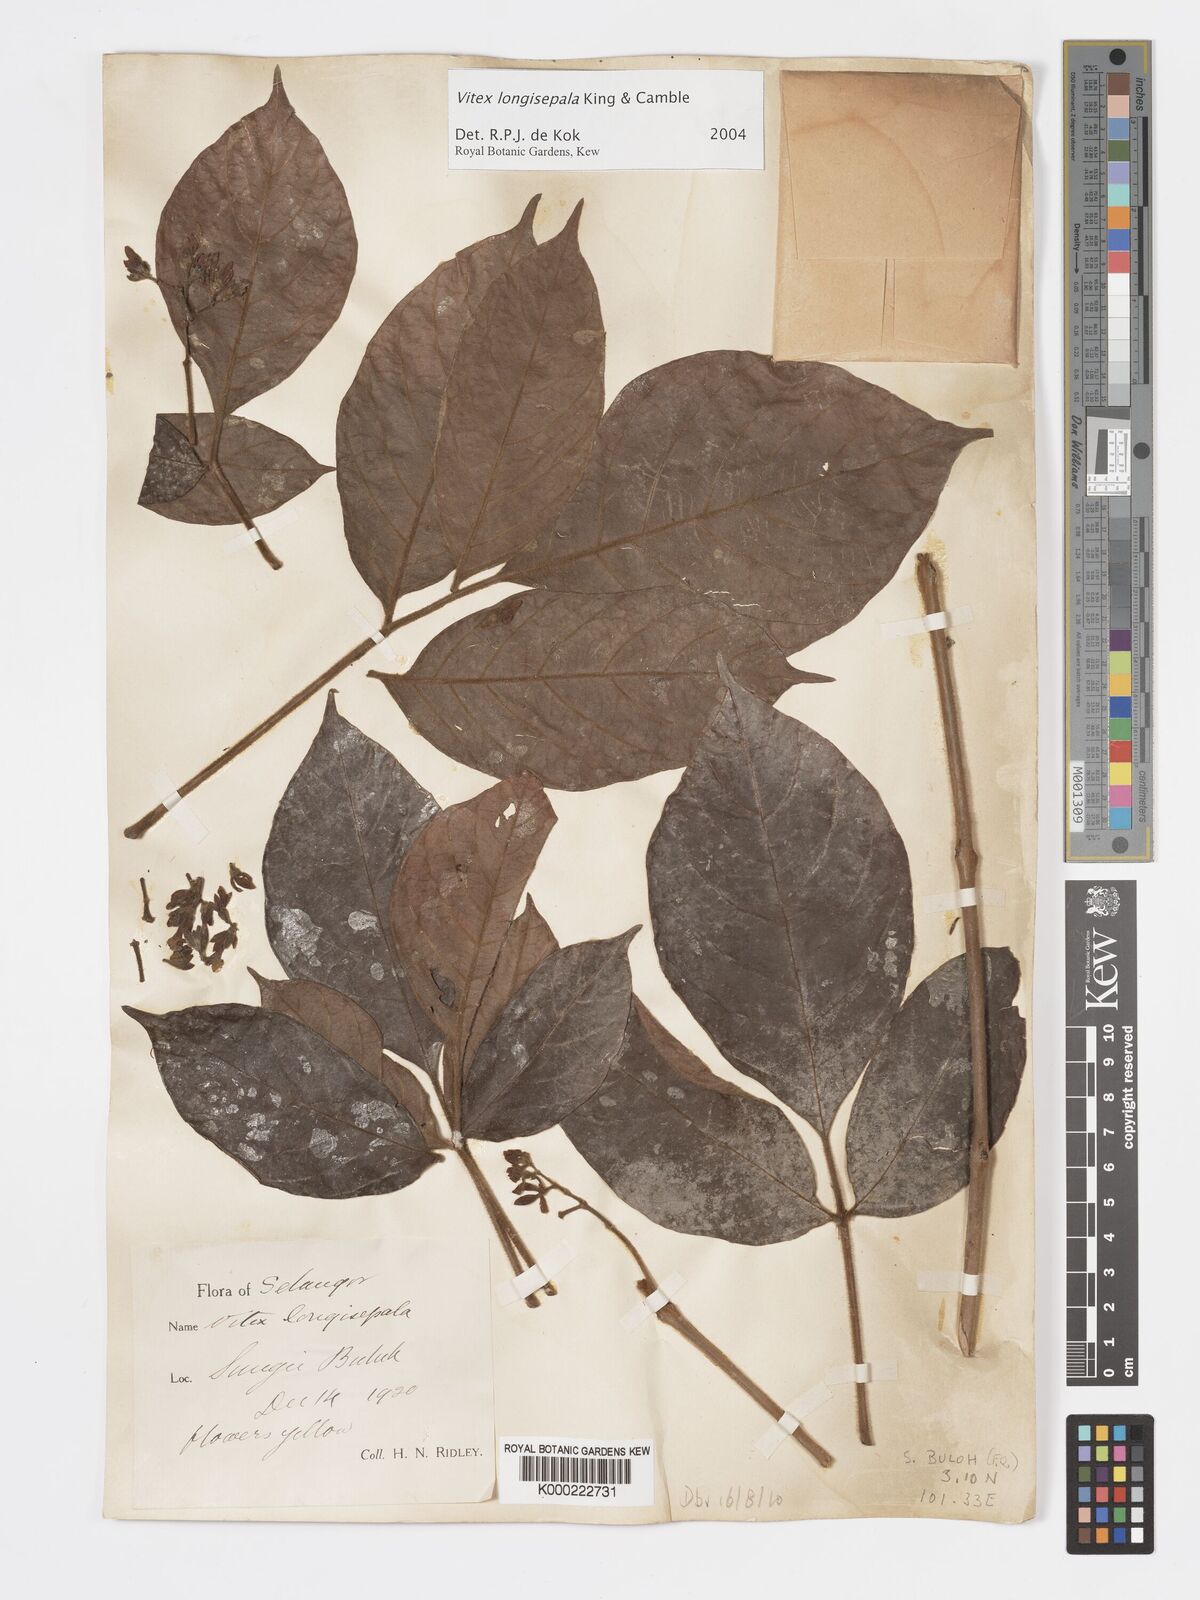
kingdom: Plantae
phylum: Tracheophyta
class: Magnoliopsida
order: Lamiales
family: Lamiaceae
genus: Vitex
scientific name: Vitex longisepala
